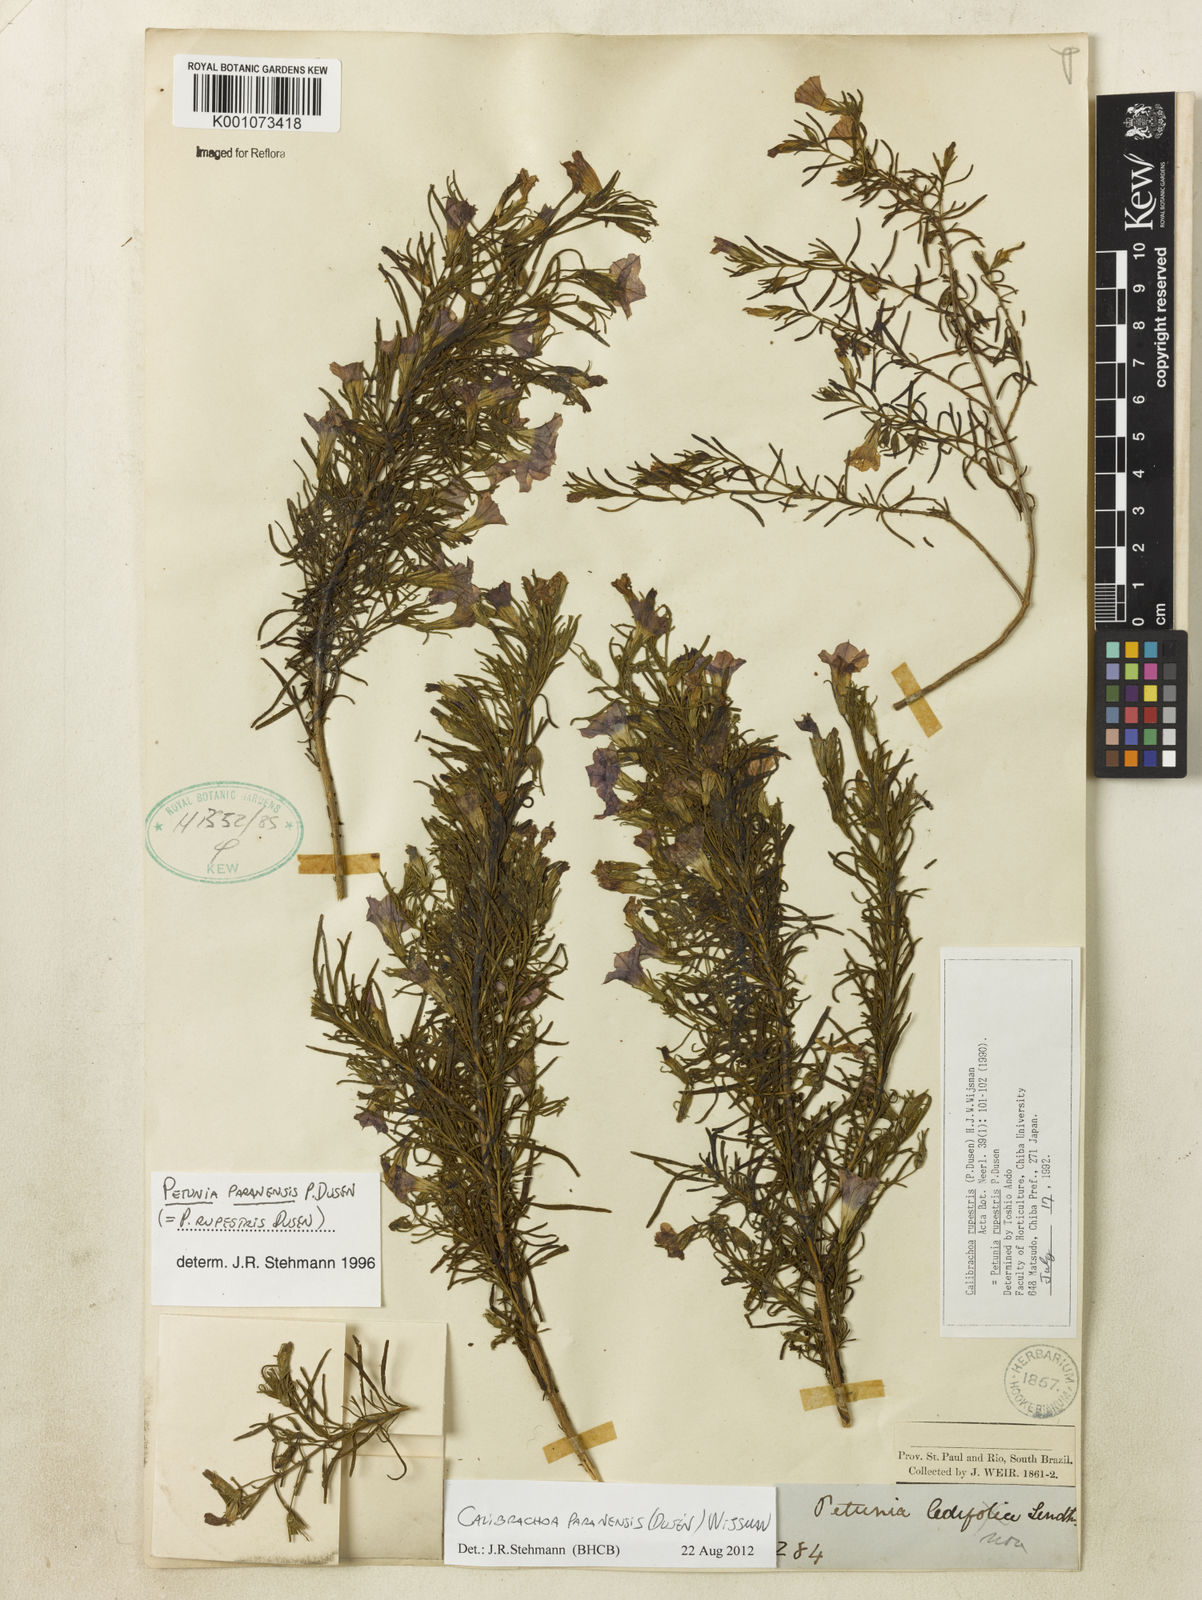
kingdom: Plantae
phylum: Tracheophyta
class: Magnoliopsida
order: Solanales
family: Solanaceae
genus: Calibrachoa
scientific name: Calibrachoa
